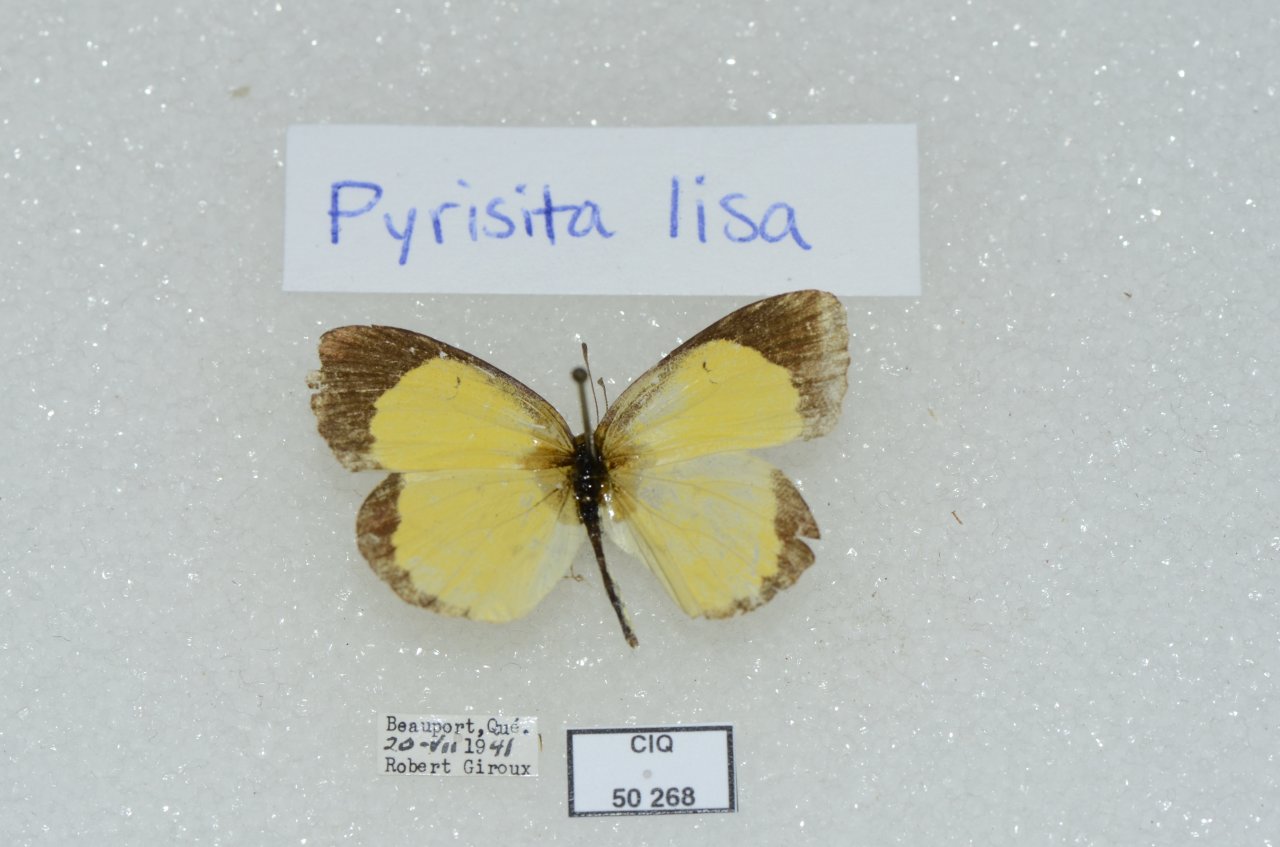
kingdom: Animalia
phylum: Arthropoda
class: Insecta
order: Lepidoptera
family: Pieridae
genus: Pyrisitia
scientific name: Pyrisitia lisa
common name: Little Yellow
